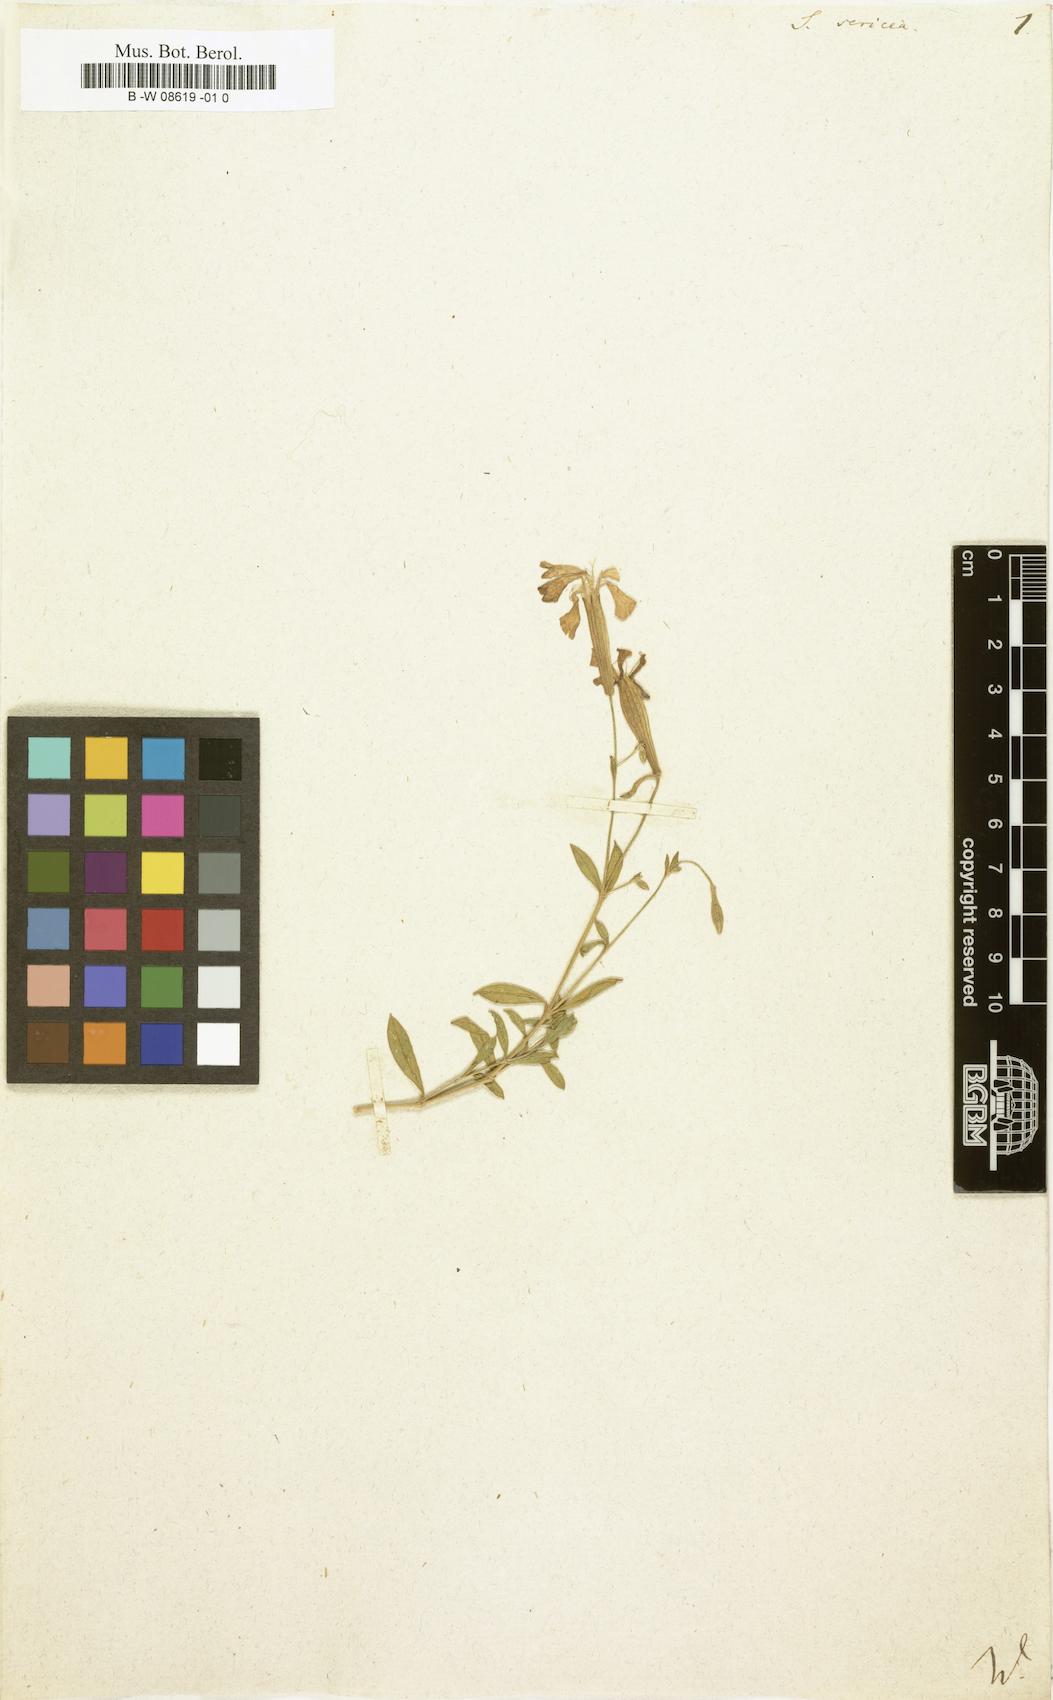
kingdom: Plantae
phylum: Tracheophyta
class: Magnoliopsida
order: Caryophyllales
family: Caryophyllaceae
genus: Silene
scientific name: Silene sericea
